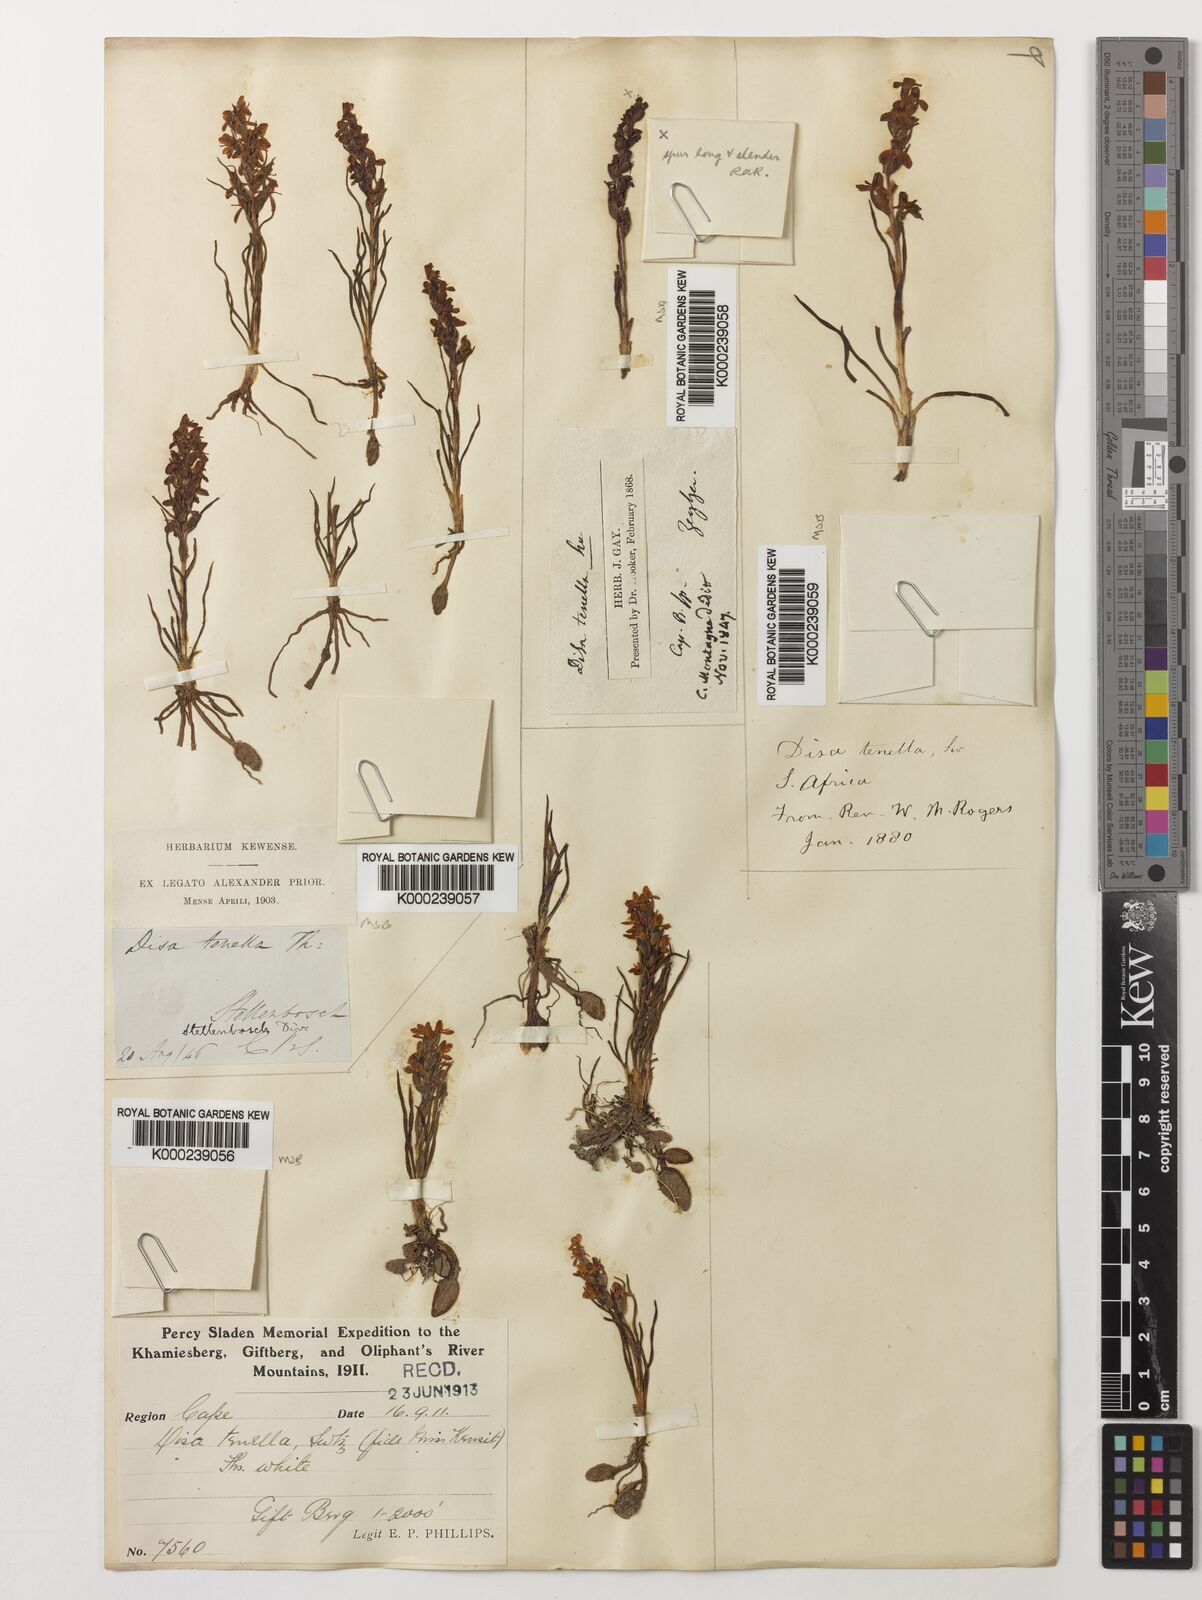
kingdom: Plantae
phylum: Tracheophyta
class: Liliopsida
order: Asparagales
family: Orchidaceae
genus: Disa
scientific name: Disa tenella
